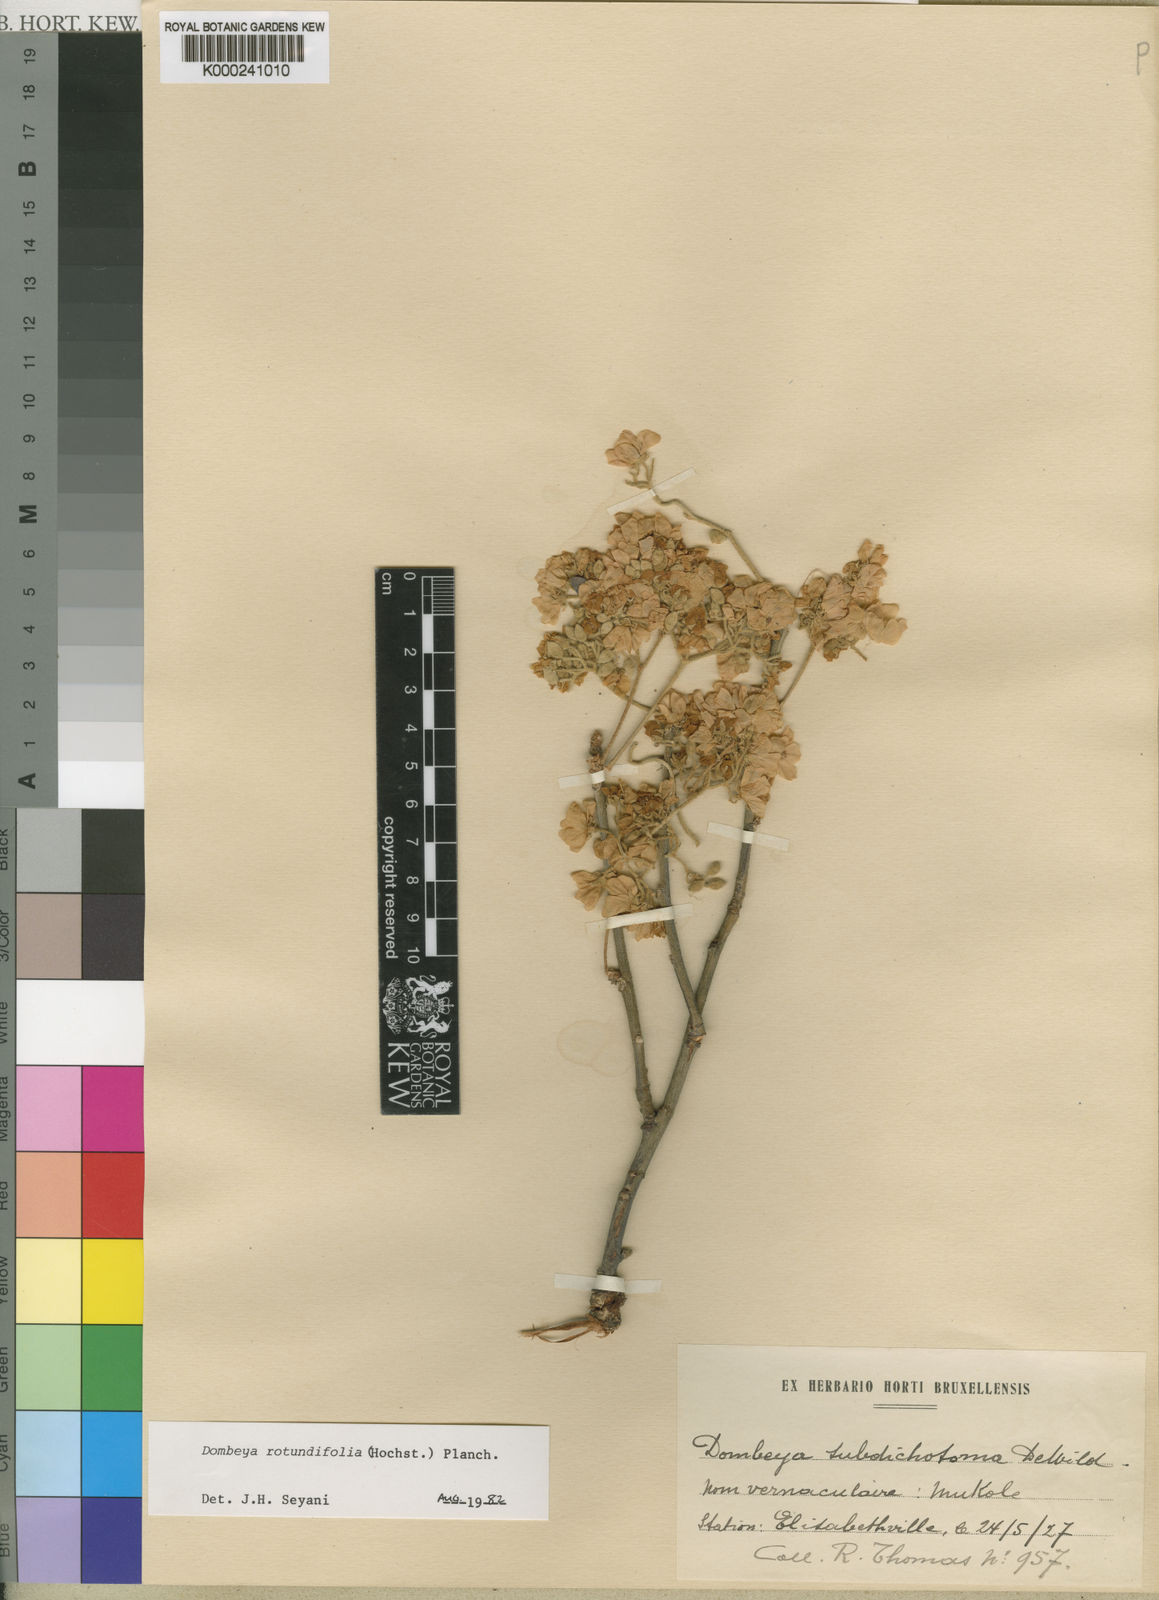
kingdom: Plantae
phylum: Tracheophyta
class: Magnoliopsida
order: Malvales
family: Malvaceae
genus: Dombeya
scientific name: Dombeya rotundifolia
